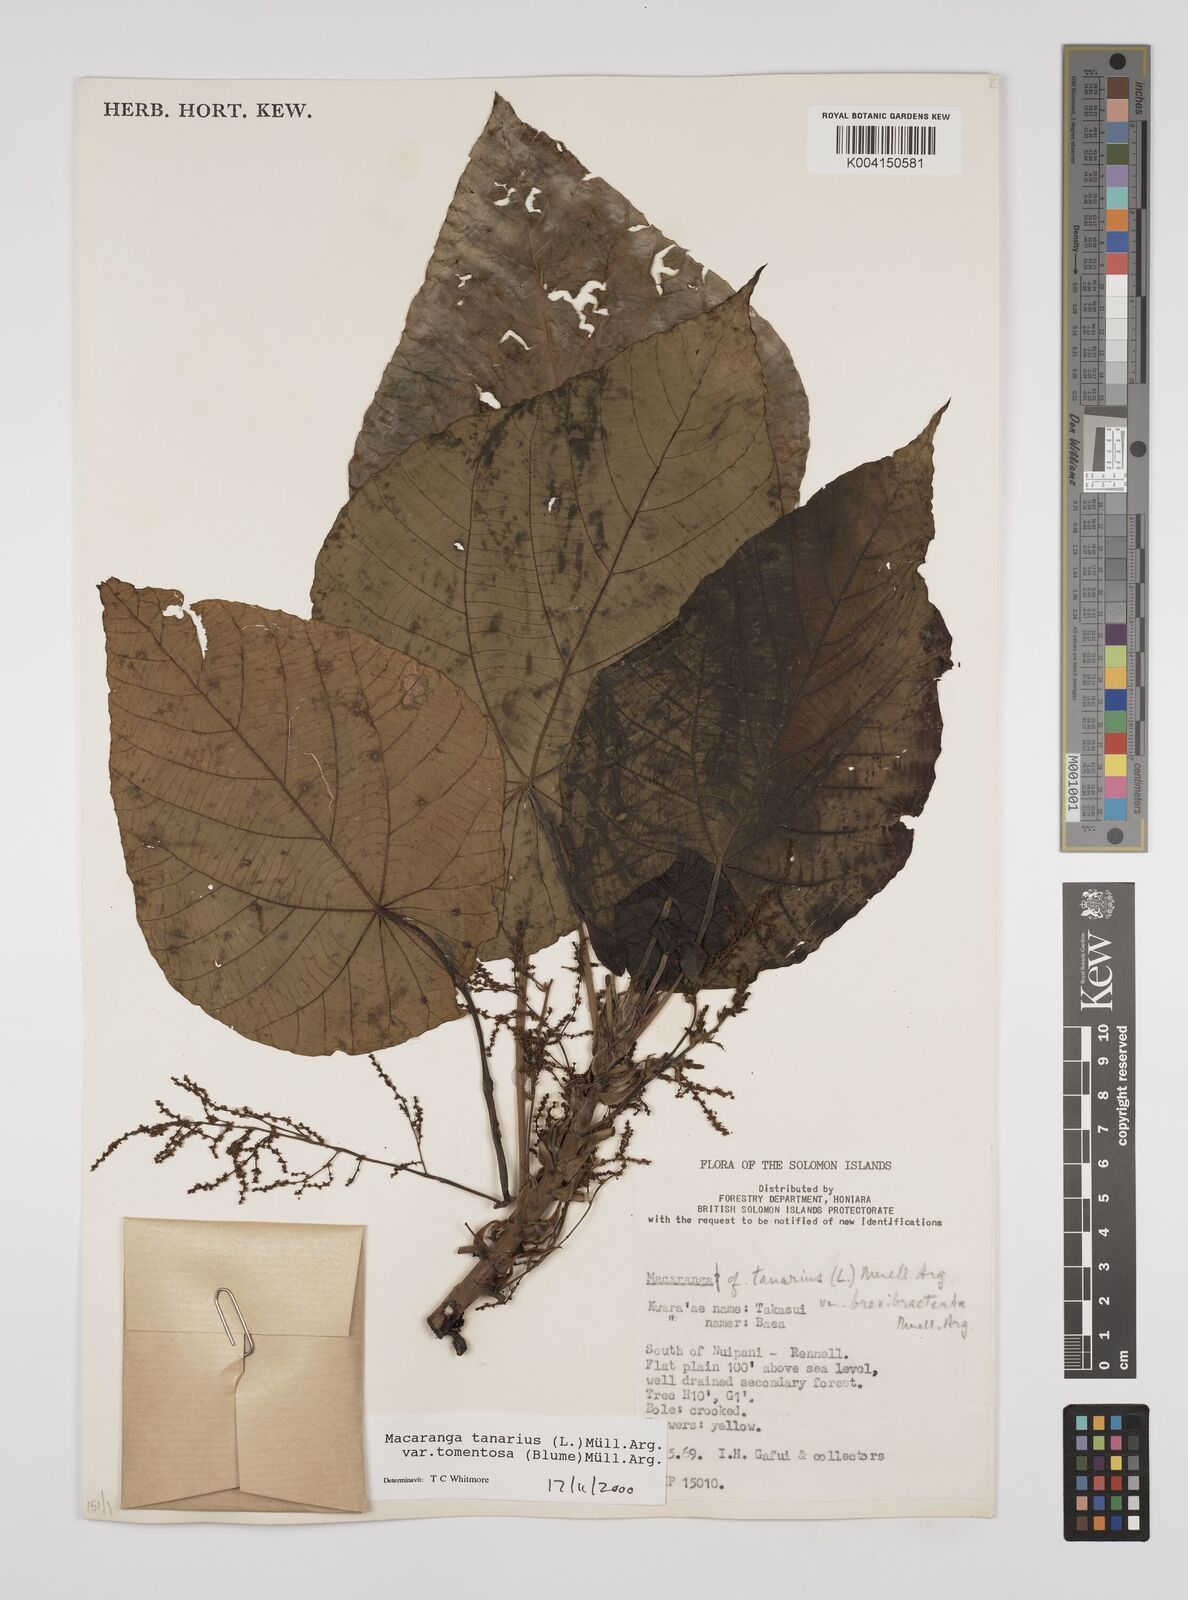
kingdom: Plantae
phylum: Tracheophyta
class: Magnoliopsida
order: Malpighiales
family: Euphorbiaceae
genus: Macaranga
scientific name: Macaranga tanarius
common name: Parasol leaf tree
